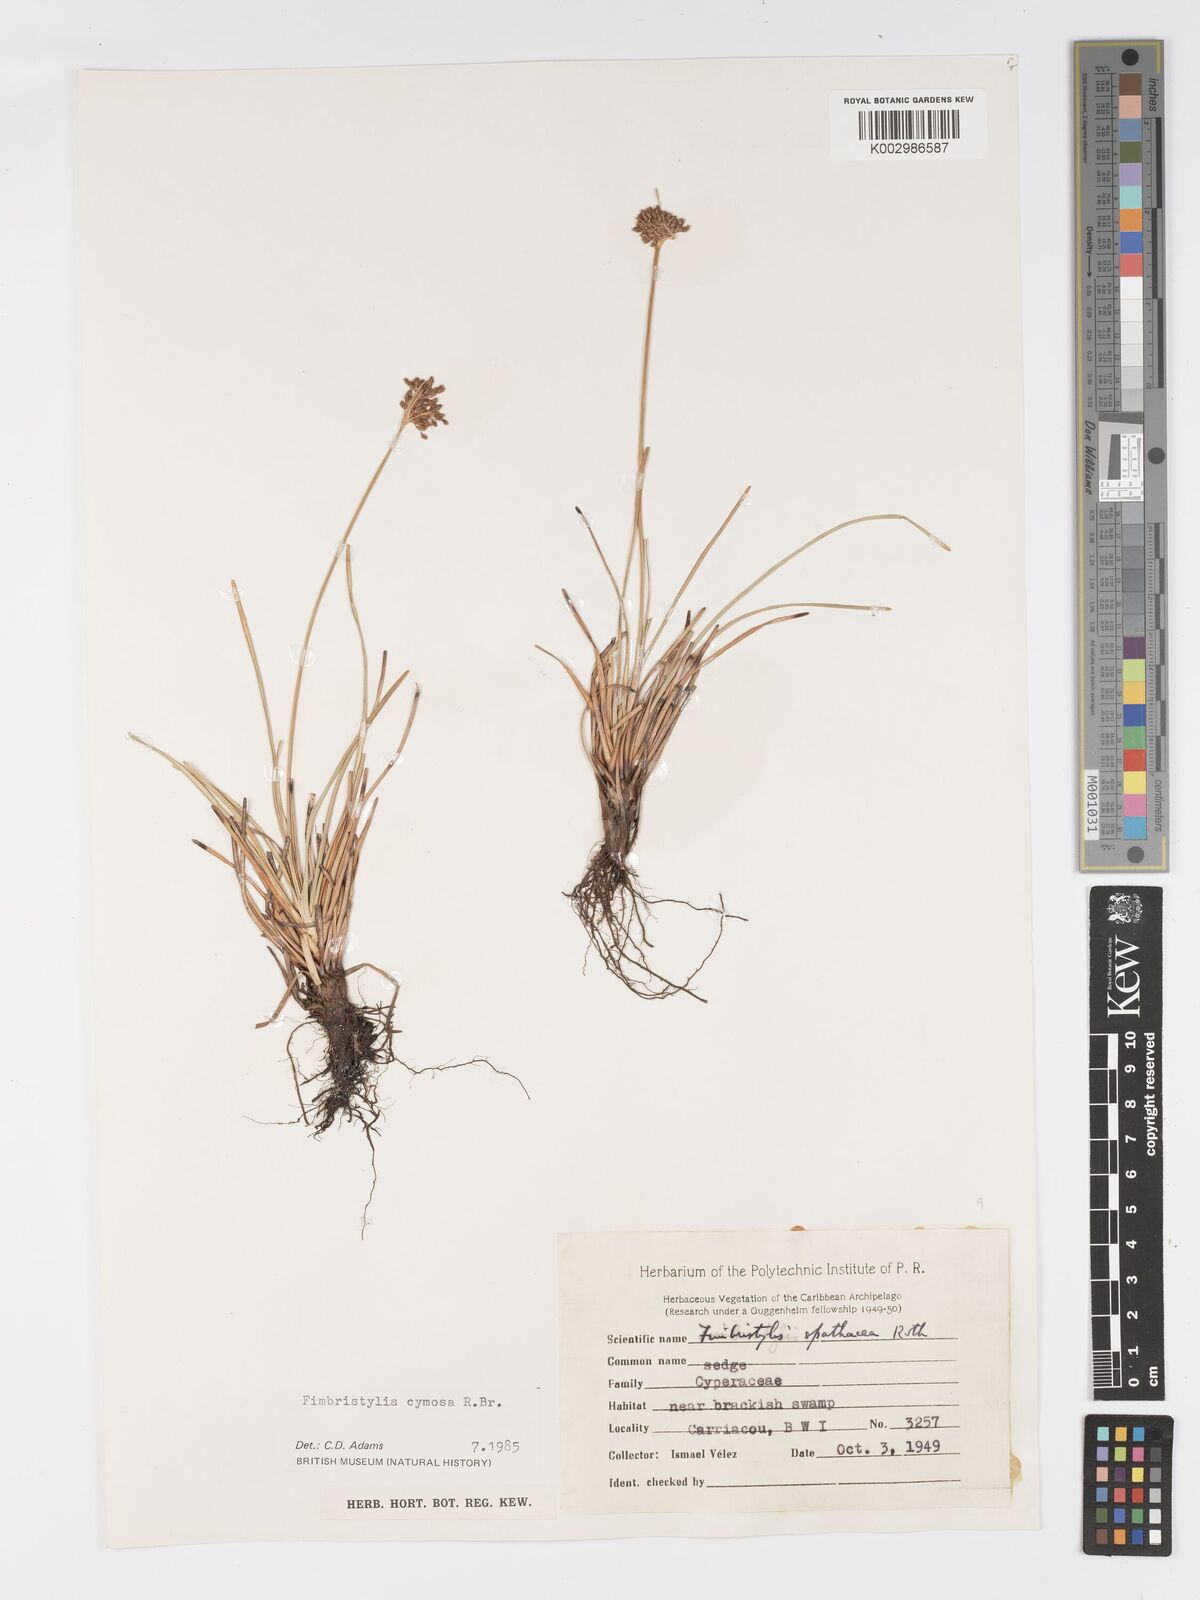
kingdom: Plantae
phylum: Tracheophyta
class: Liliopsida
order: Poales
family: Cyperaceae
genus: Fimbristylis
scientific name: Fimbristylis cymosa
